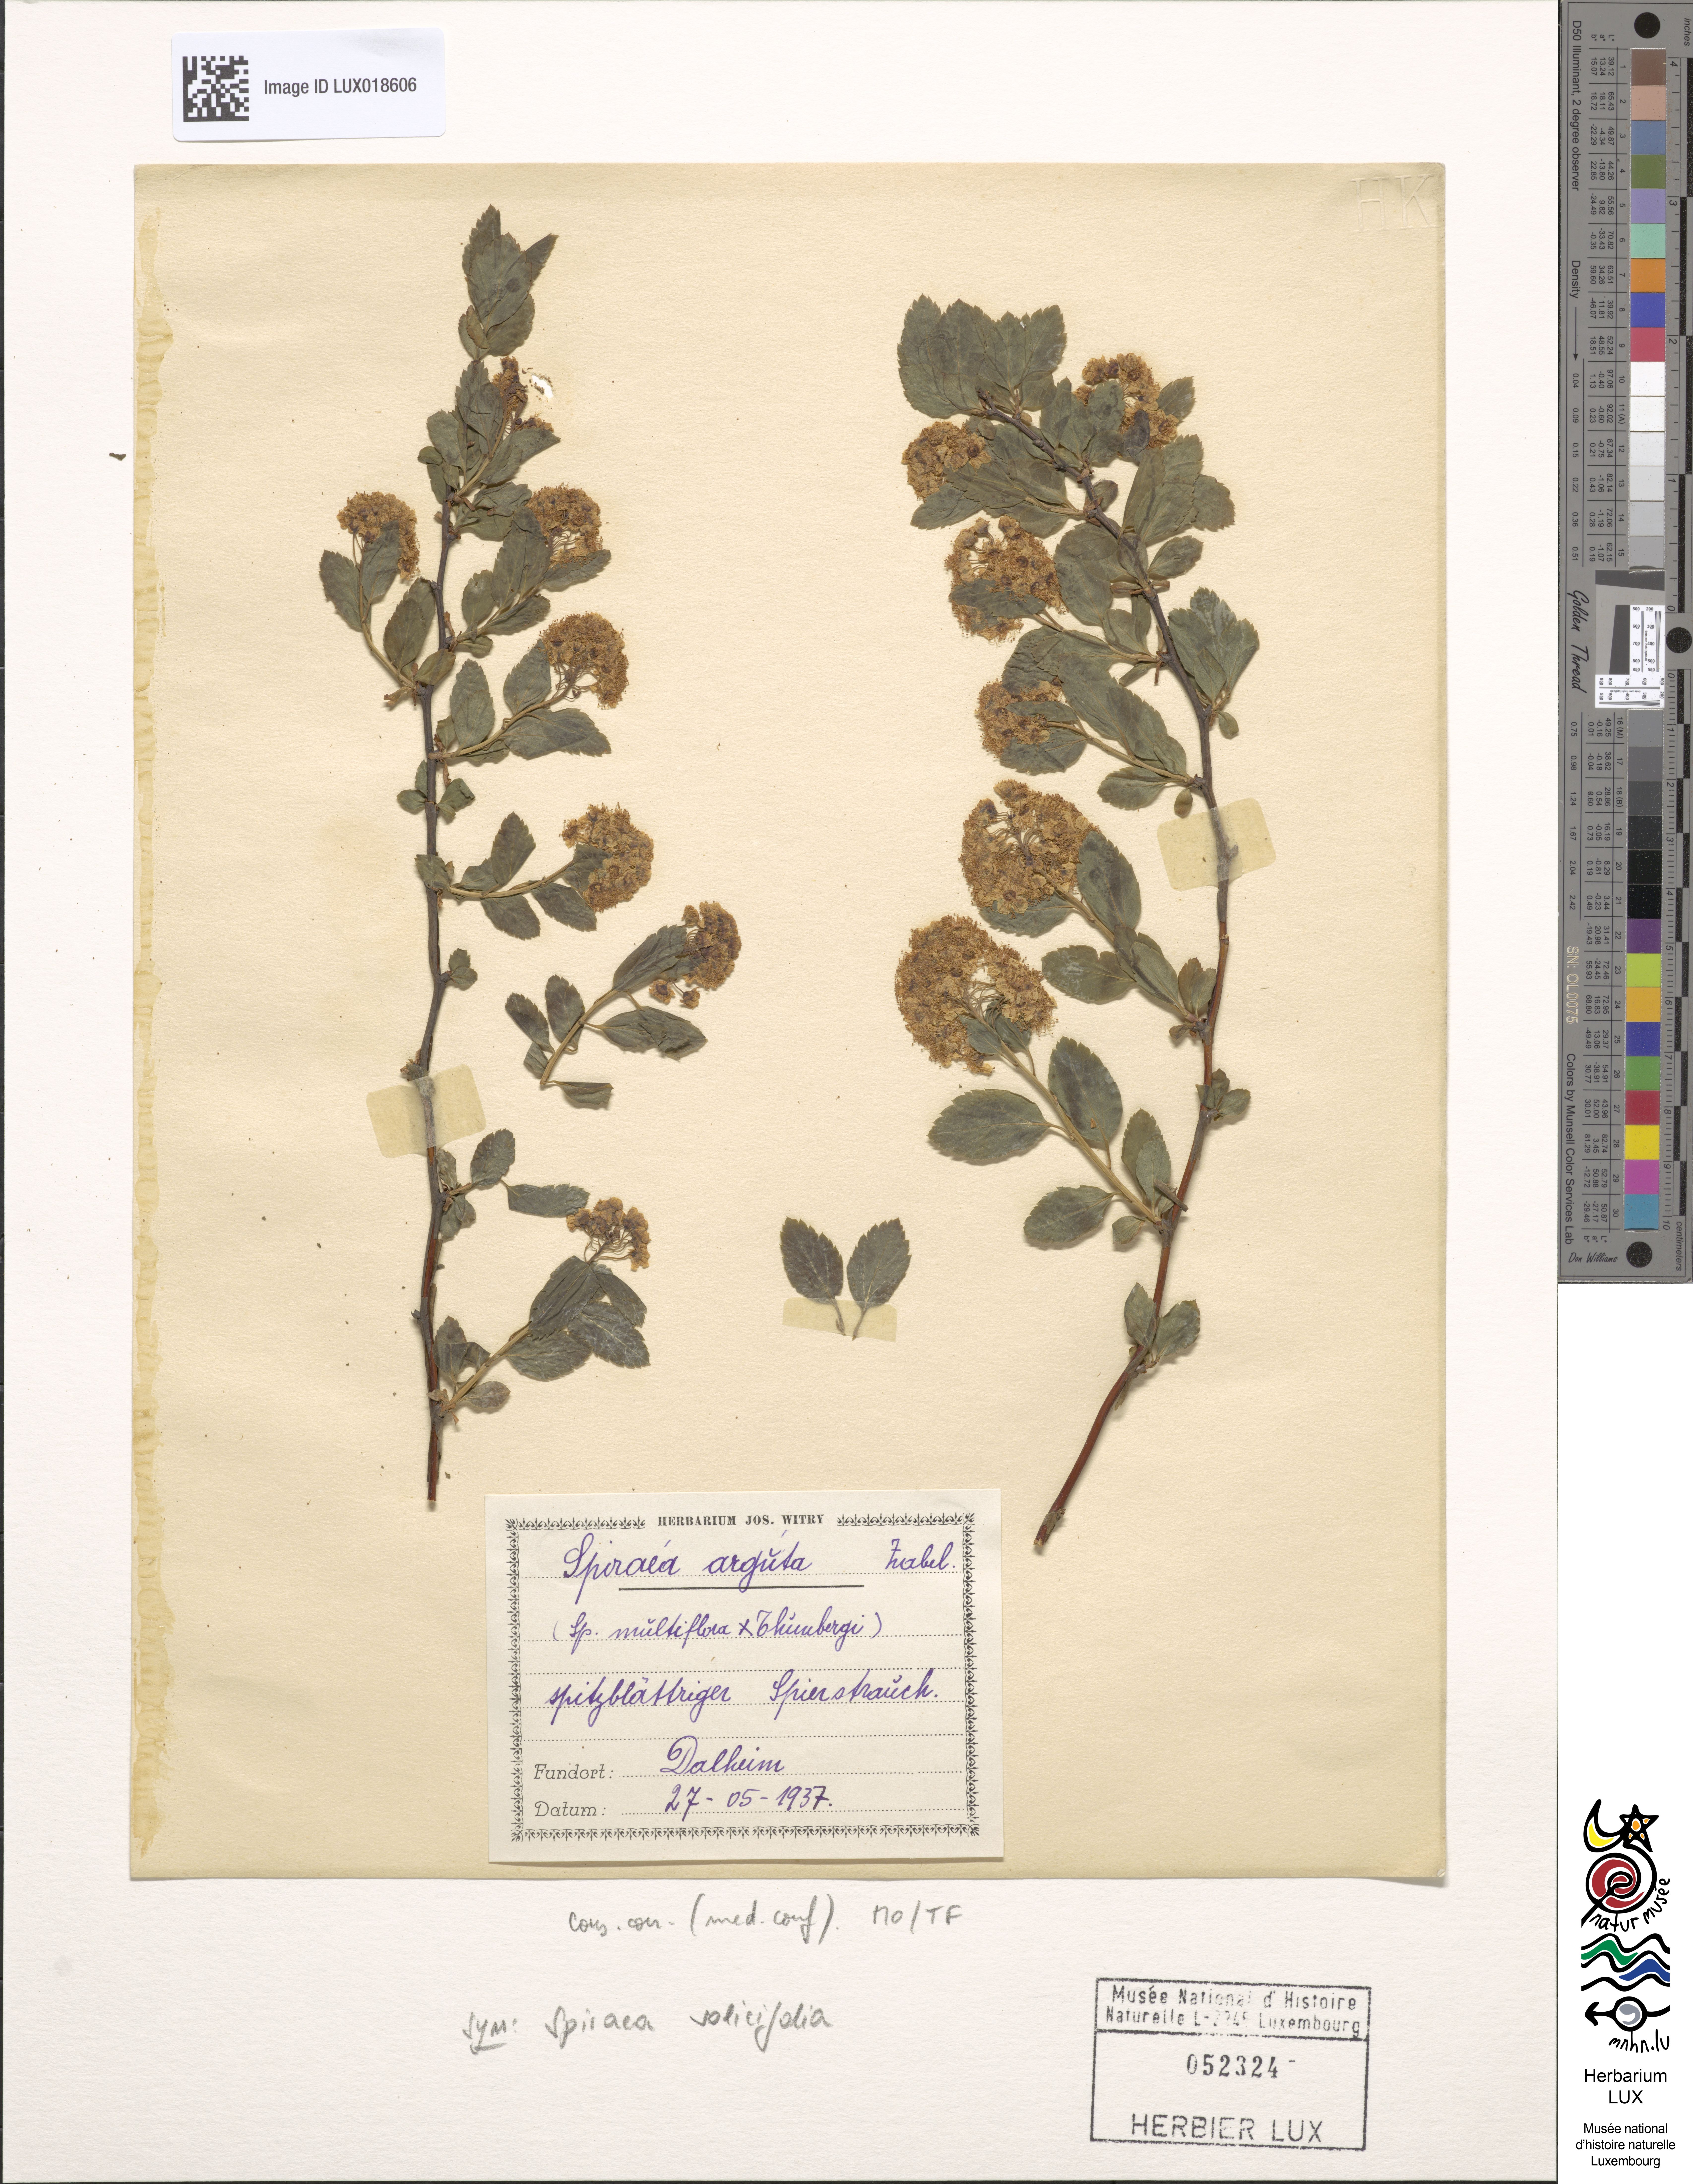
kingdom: Plantae
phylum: Tracheophyta
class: Magnoliopsida
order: Rosales
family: Rosaceae
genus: Spiraea
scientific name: Spiraea arguta
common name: Garland spiraea
